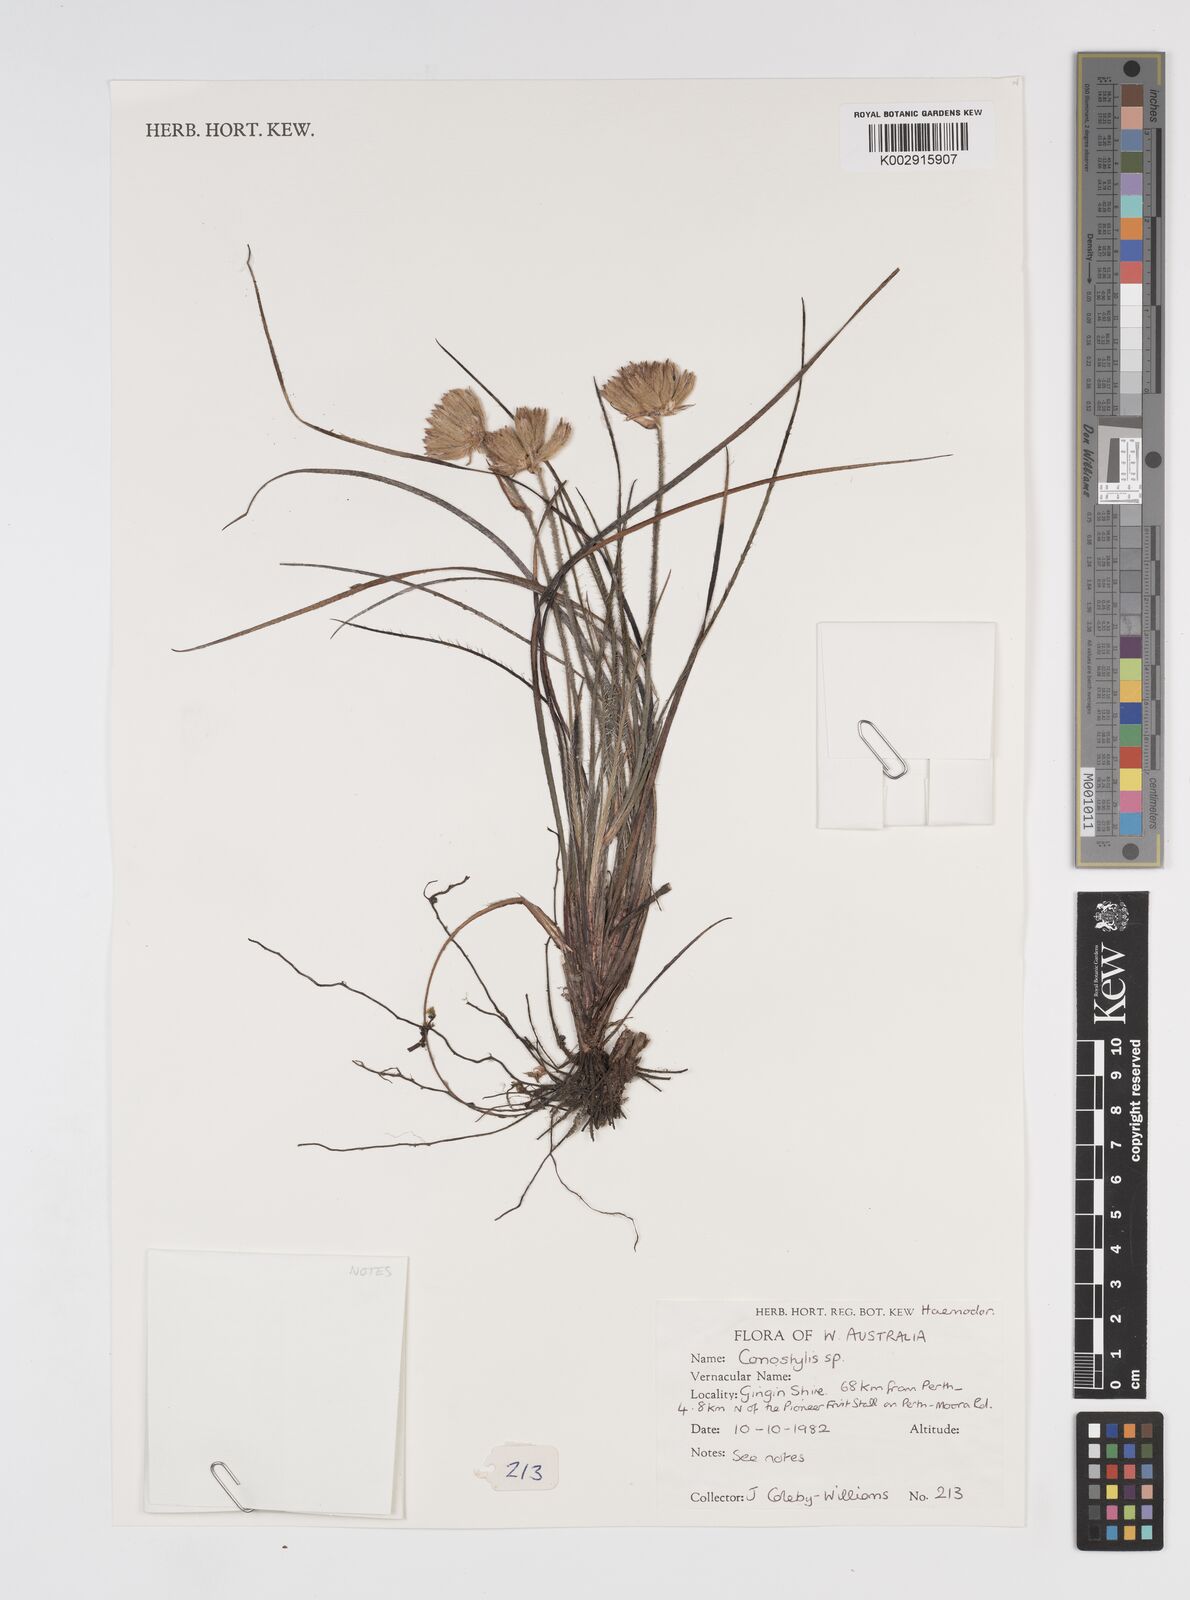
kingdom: Plantae
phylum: Tracheophyta
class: Liliopsida
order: Commelinales
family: Haemodoraceae
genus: Conostylis
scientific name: Conostylis
